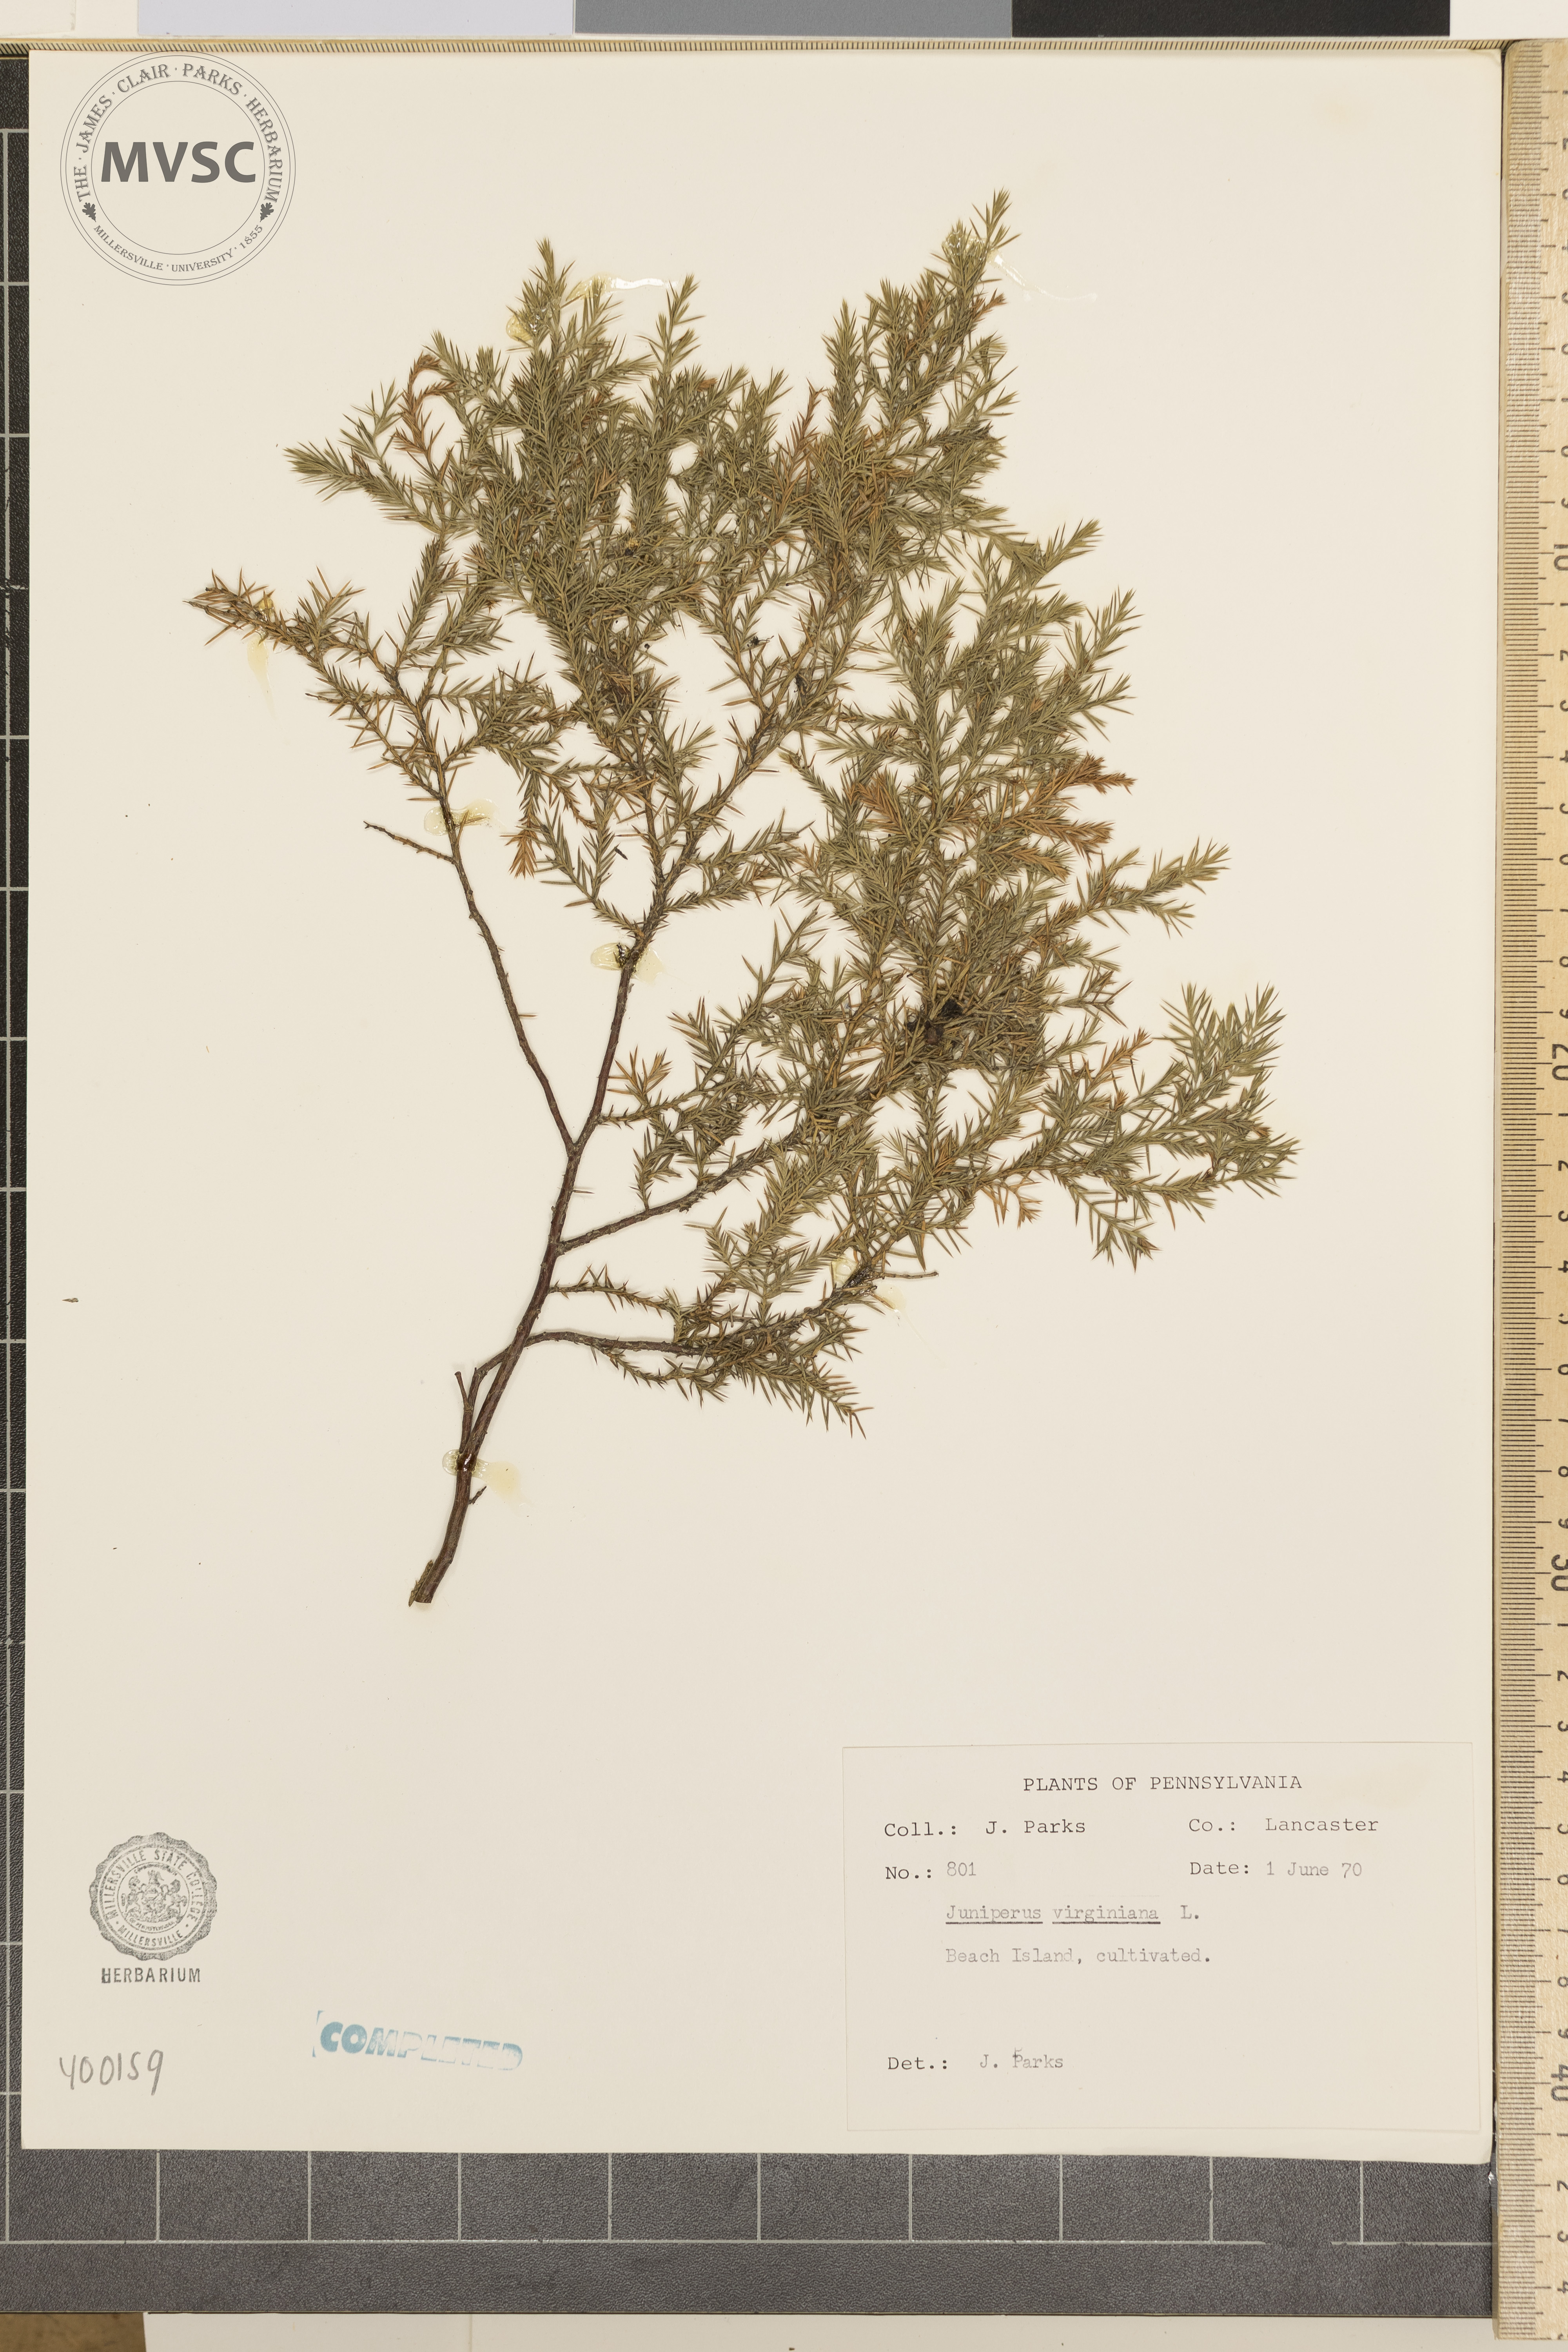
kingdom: Plantae
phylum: Tracheophyta
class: Pinopsida
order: Pinales
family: Cupressaceae
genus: Juniperus
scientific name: Juniperus virginiana
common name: Eastern red-cedar
